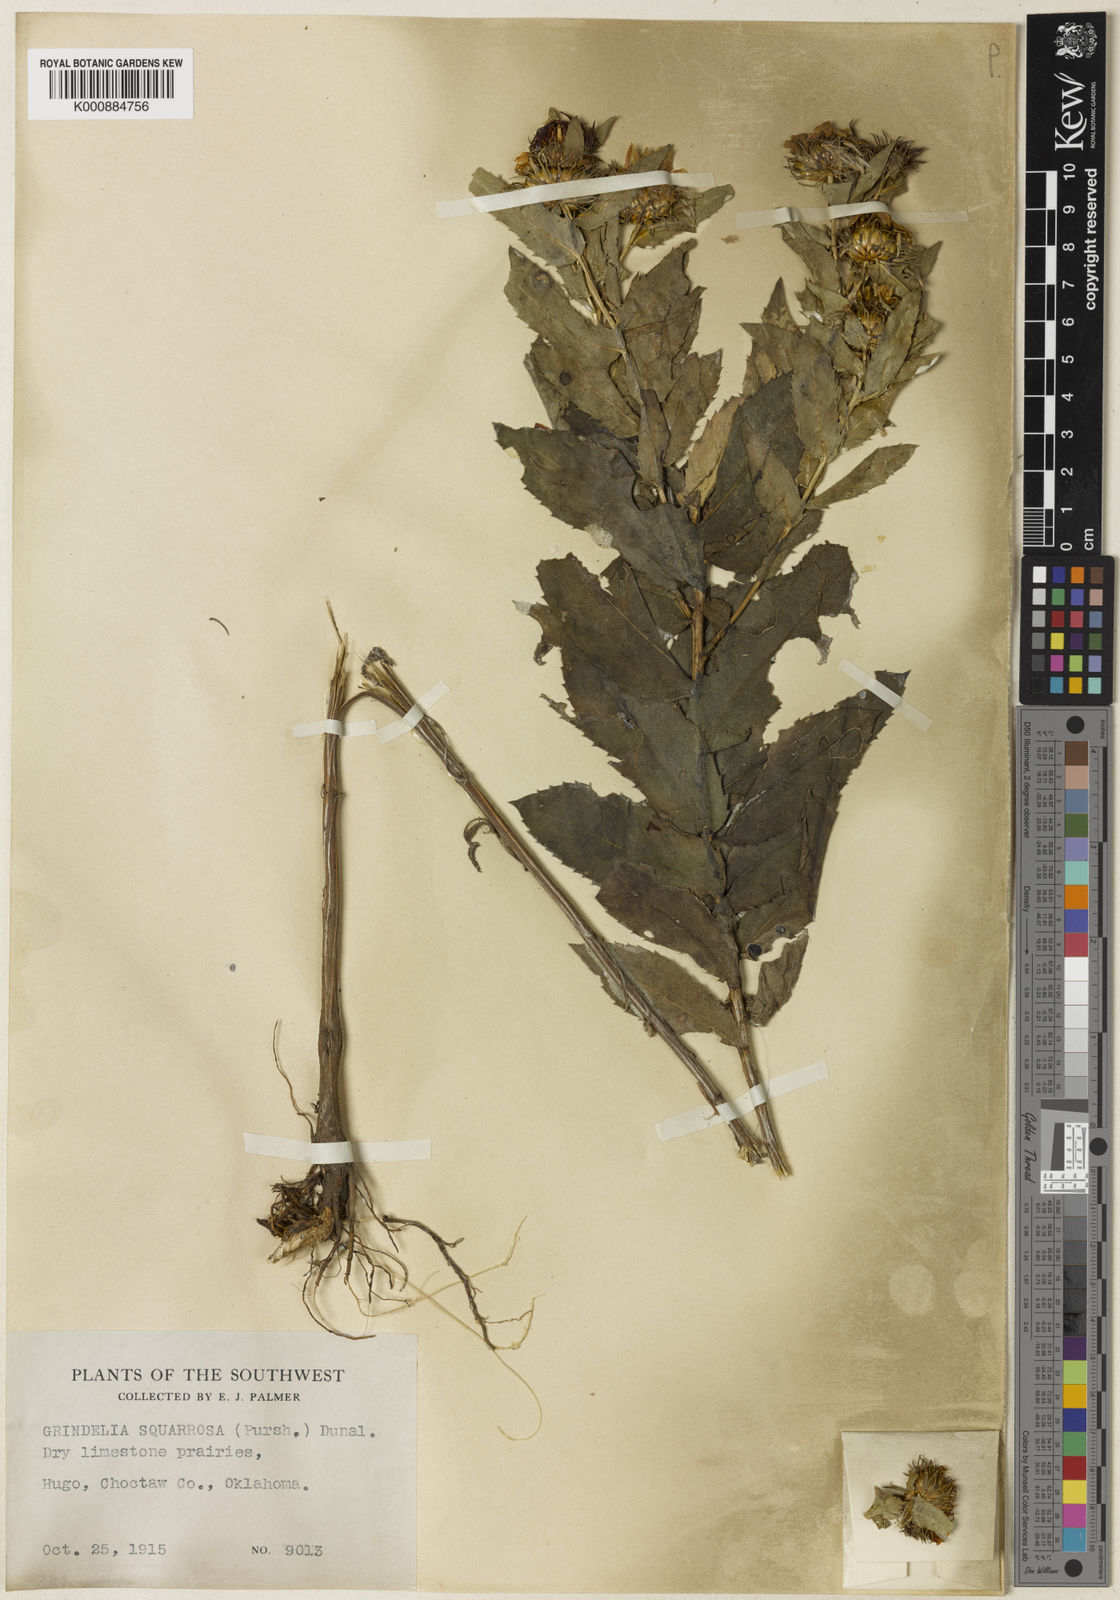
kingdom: Plantae
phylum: Tracheophyta
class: Magnoliopsida
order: Asterales
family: Asteraceae
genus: Grindelia
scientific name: Grindelia lanceolata
